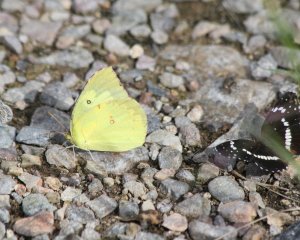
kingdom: Animalia
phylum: Arthropoda
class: Insecta
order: Lepidoptera
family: Nymphalidae
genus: Chlosyne
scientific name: Chlosyne lacinia
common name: Bordered Patch
